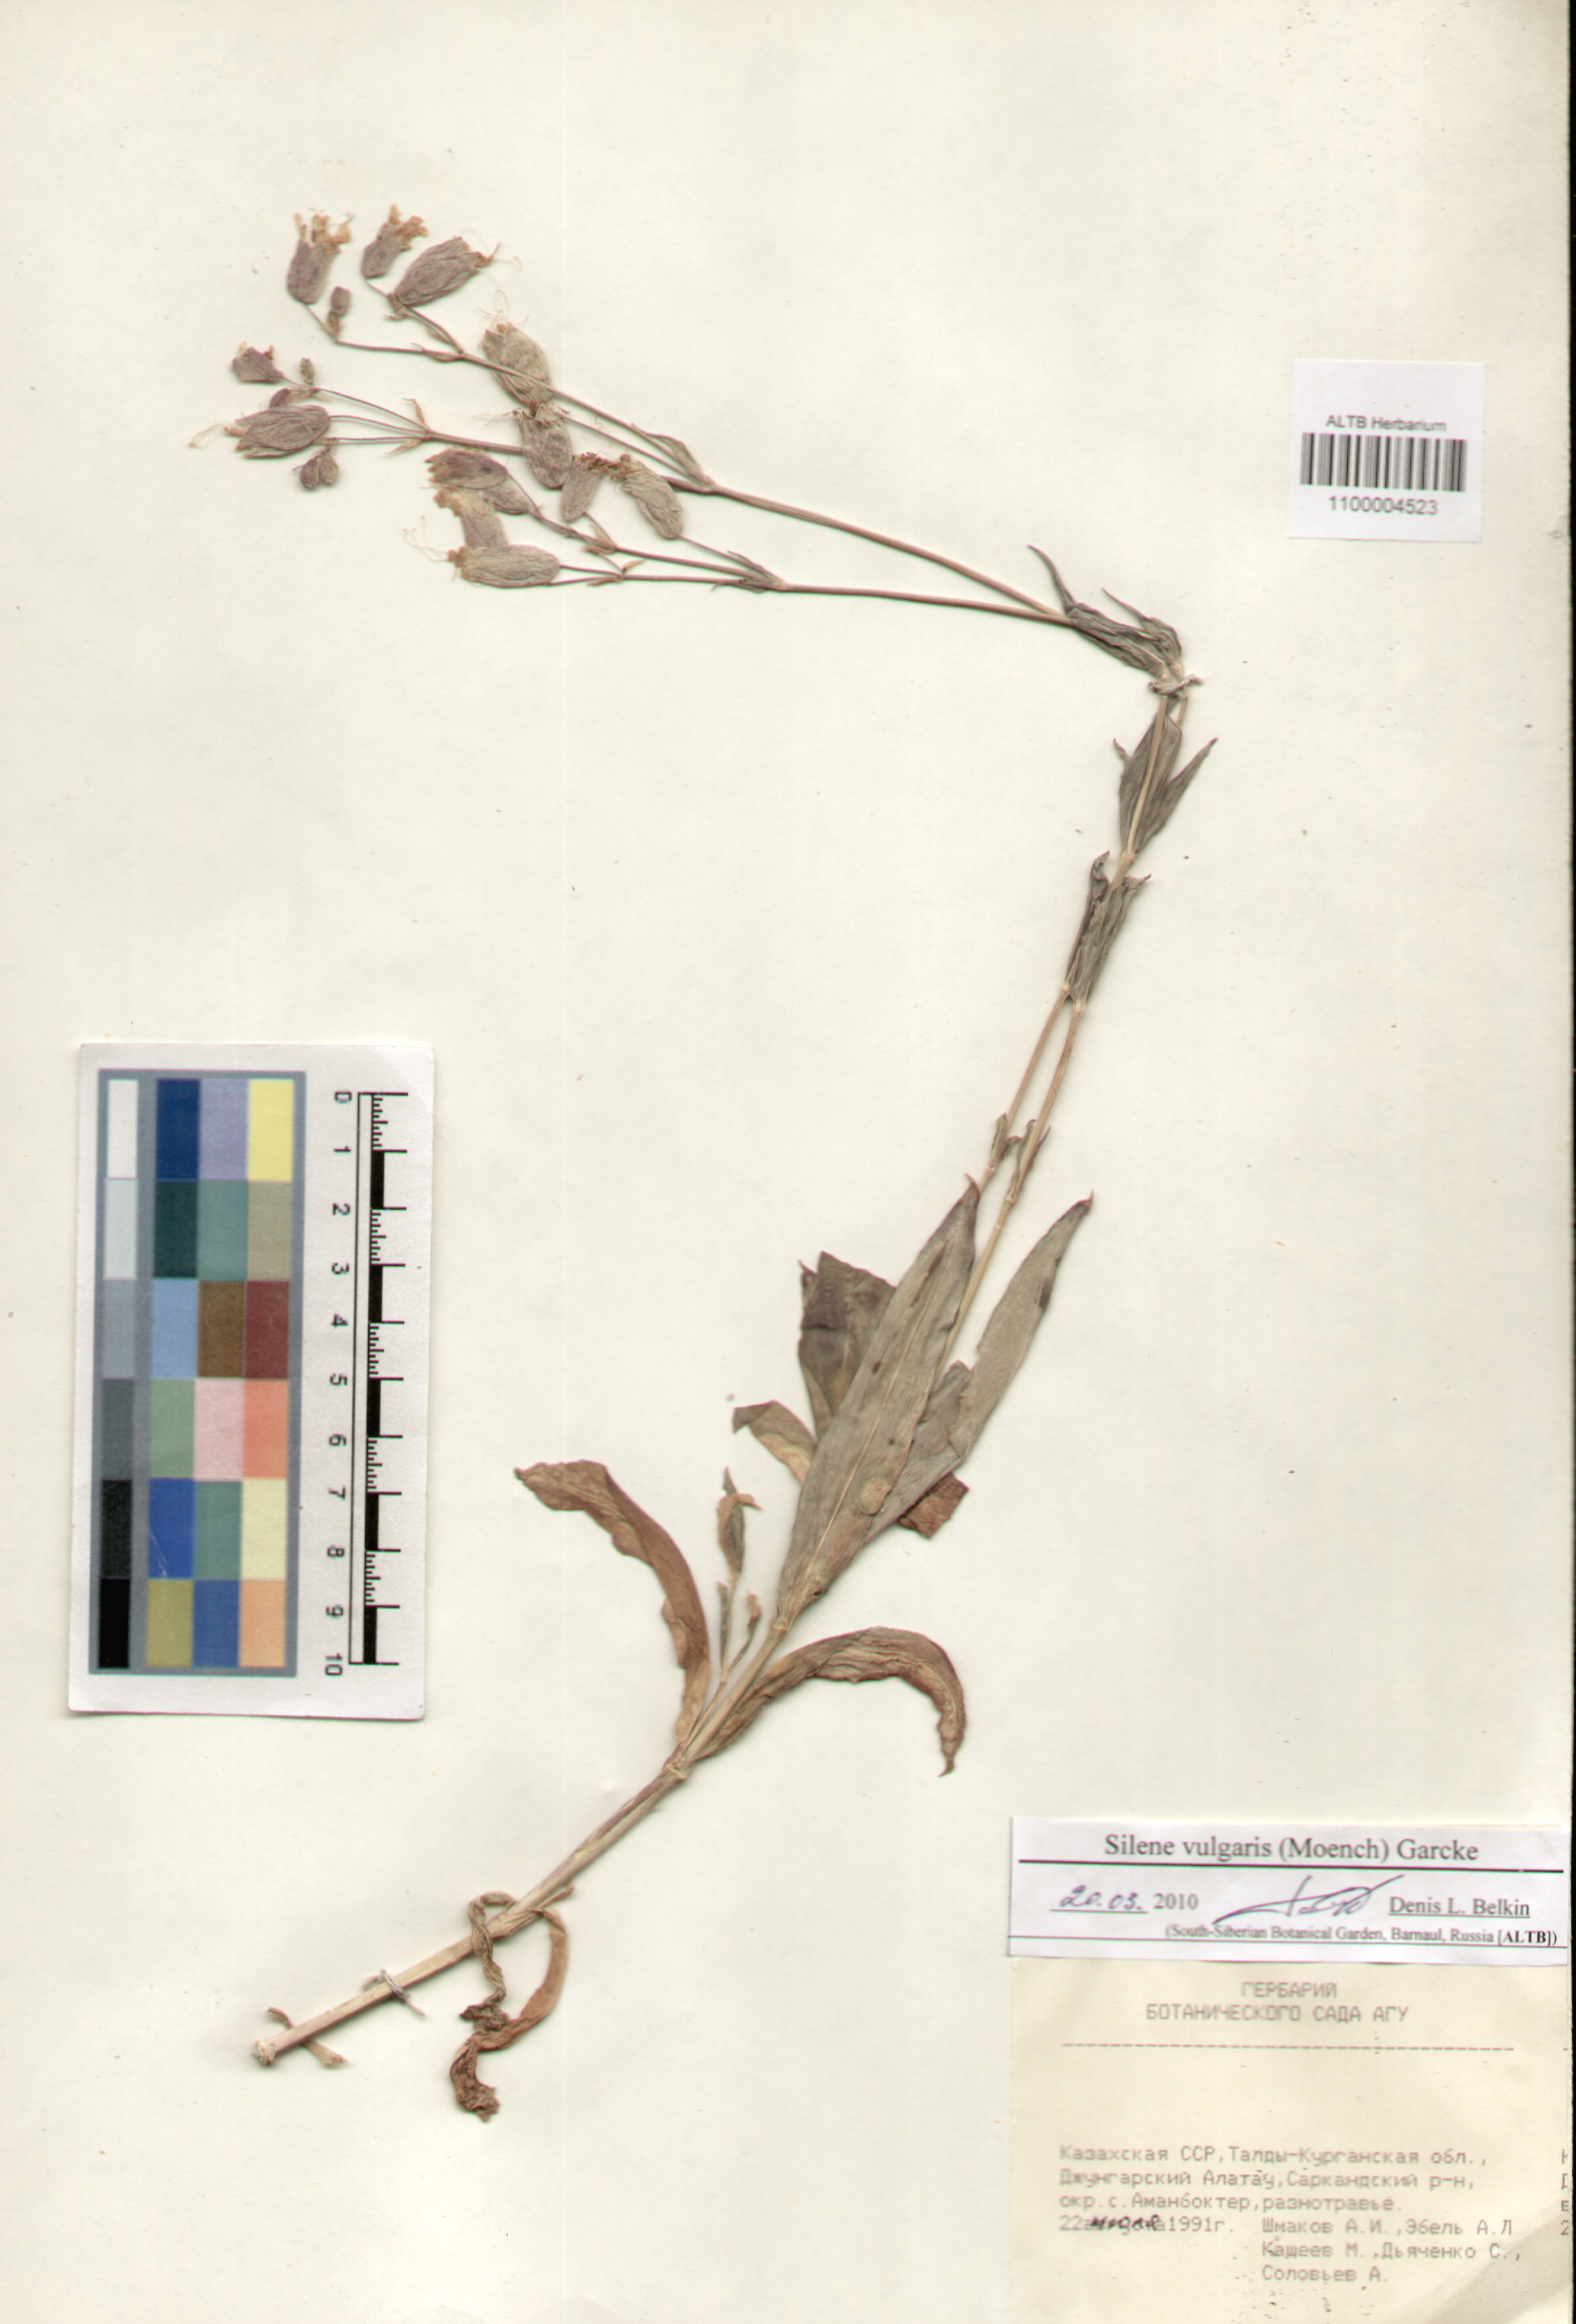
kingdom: Plantae
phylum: Tracheophyta
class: Magnoliopsida
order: Caryophyllales
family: Caryophyllaceae
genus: Silene
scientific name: Silene vulgaris
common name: Bladder campion
